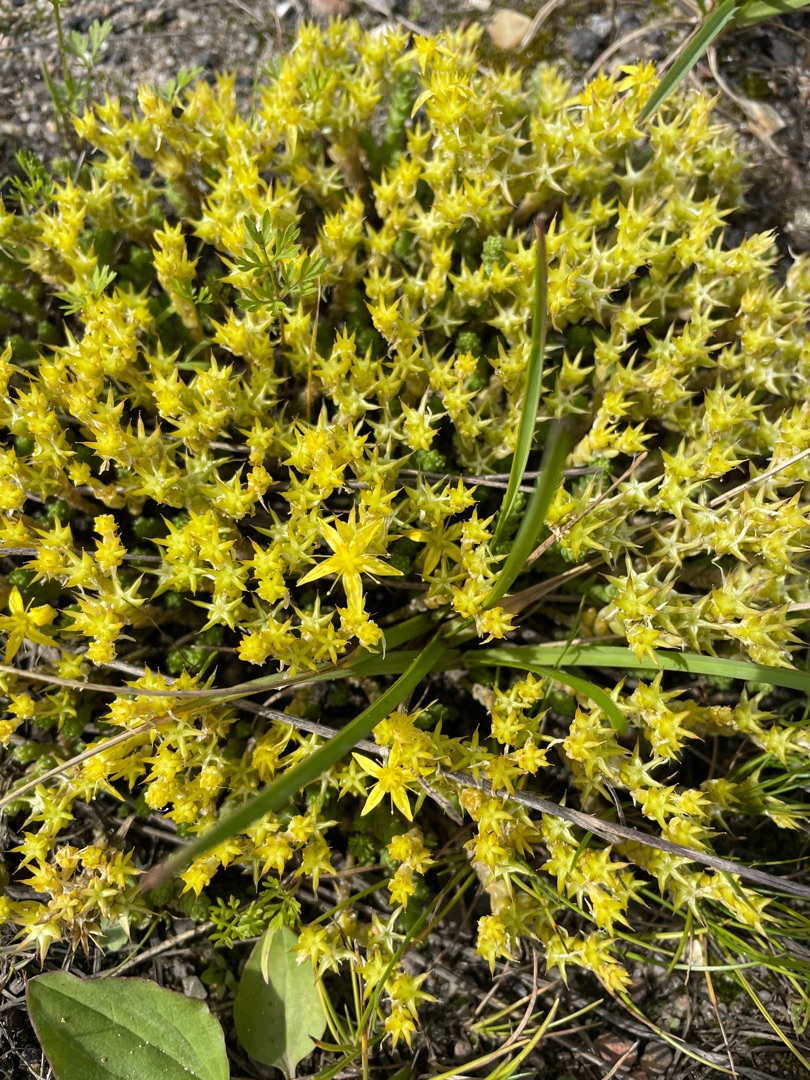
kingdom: Plantae
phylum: Tracheophyta
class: Magnoliopsida
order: Saxifragales
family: Crassulaceae
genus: Sedum
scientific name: Sedum acre
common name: Bidende stenurt
